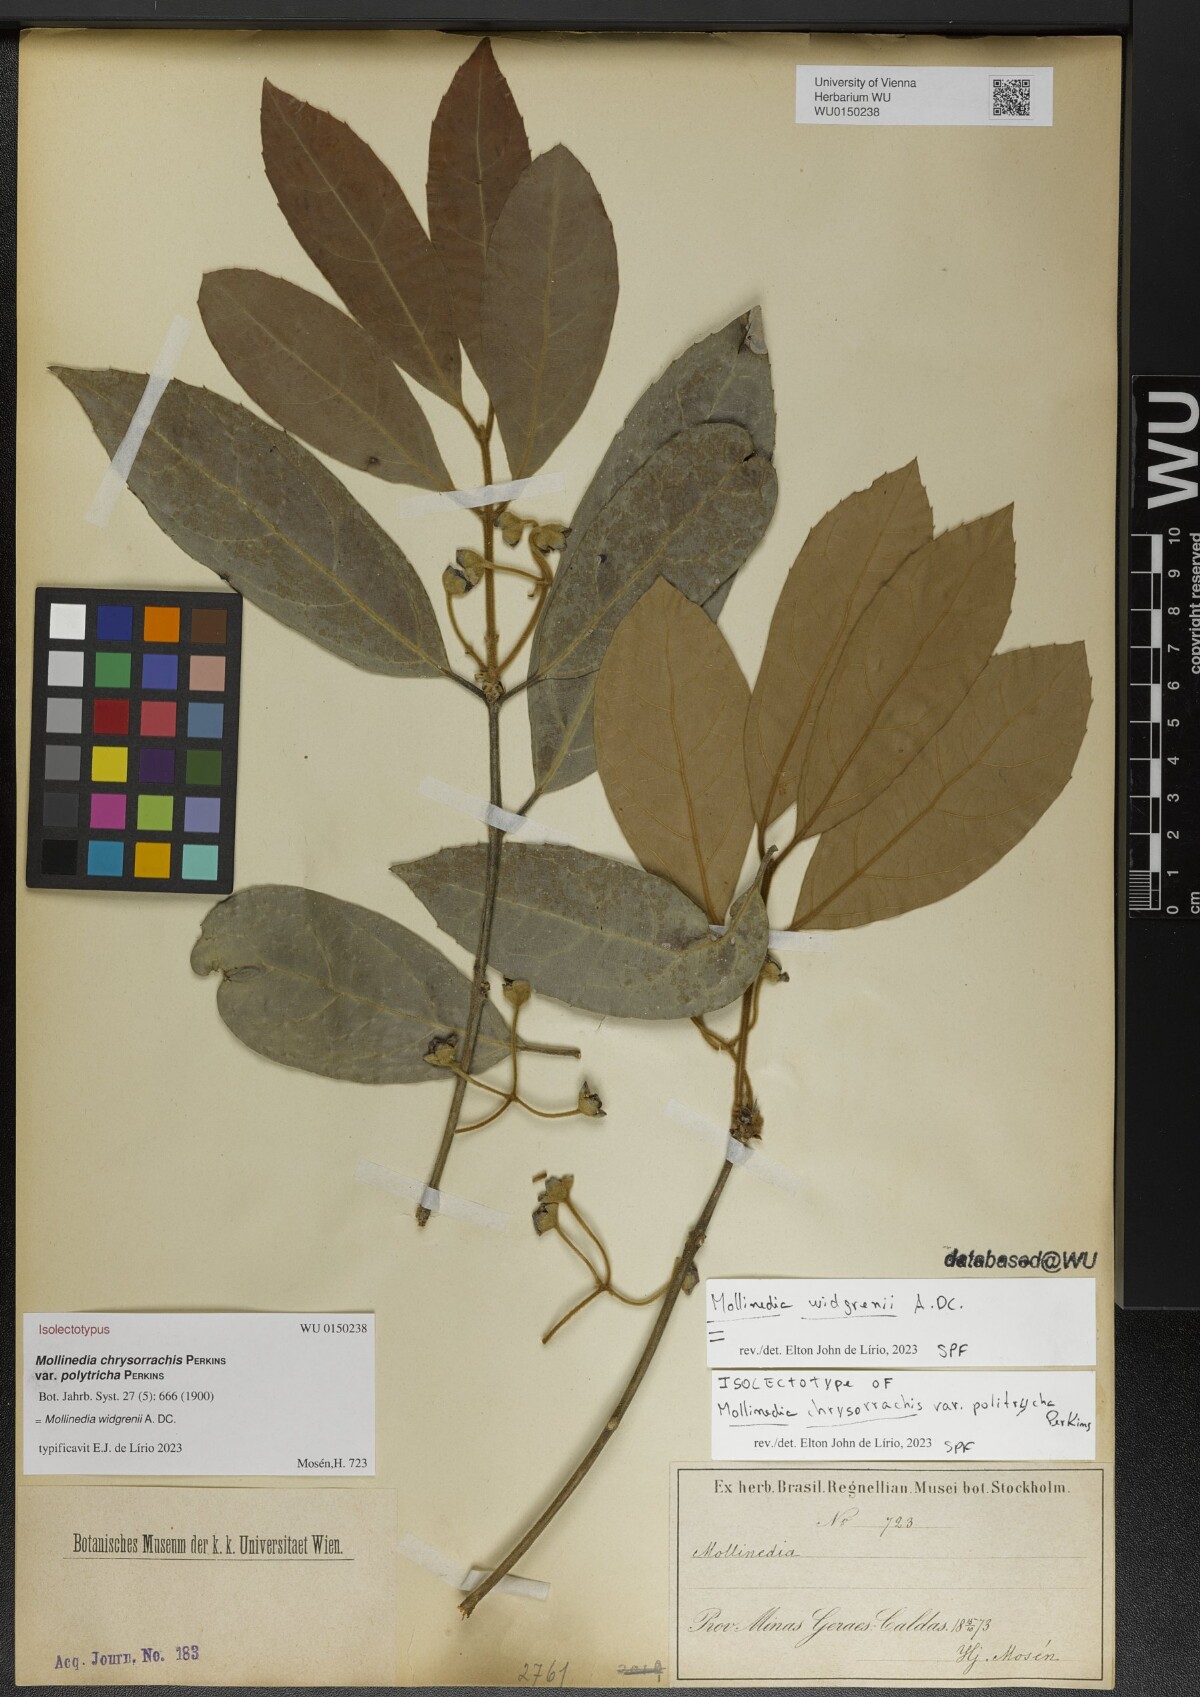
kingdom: Plantae
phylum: Tracheophyta
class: Magnoliopsida
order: Laurales
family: Monimiaceae
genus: Mollinedia
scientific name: Mollinedia widgrenii
